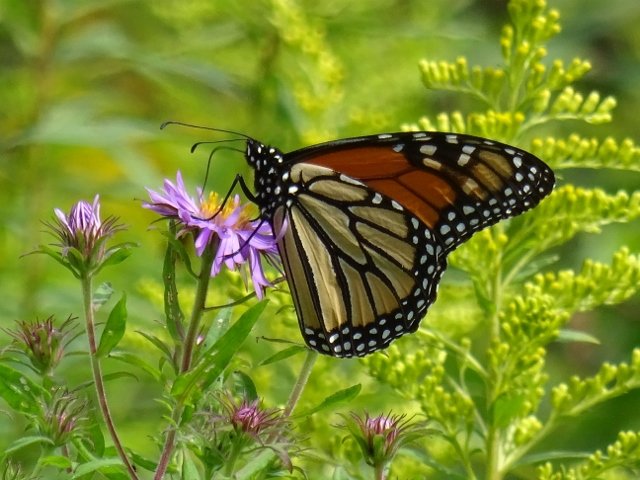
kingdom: Animalia
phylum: Arthropoda
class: Insecta
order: Lepidoptera
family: Nymphalidae
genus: Danaus
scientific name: Danaus plexippus
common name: Monarch
